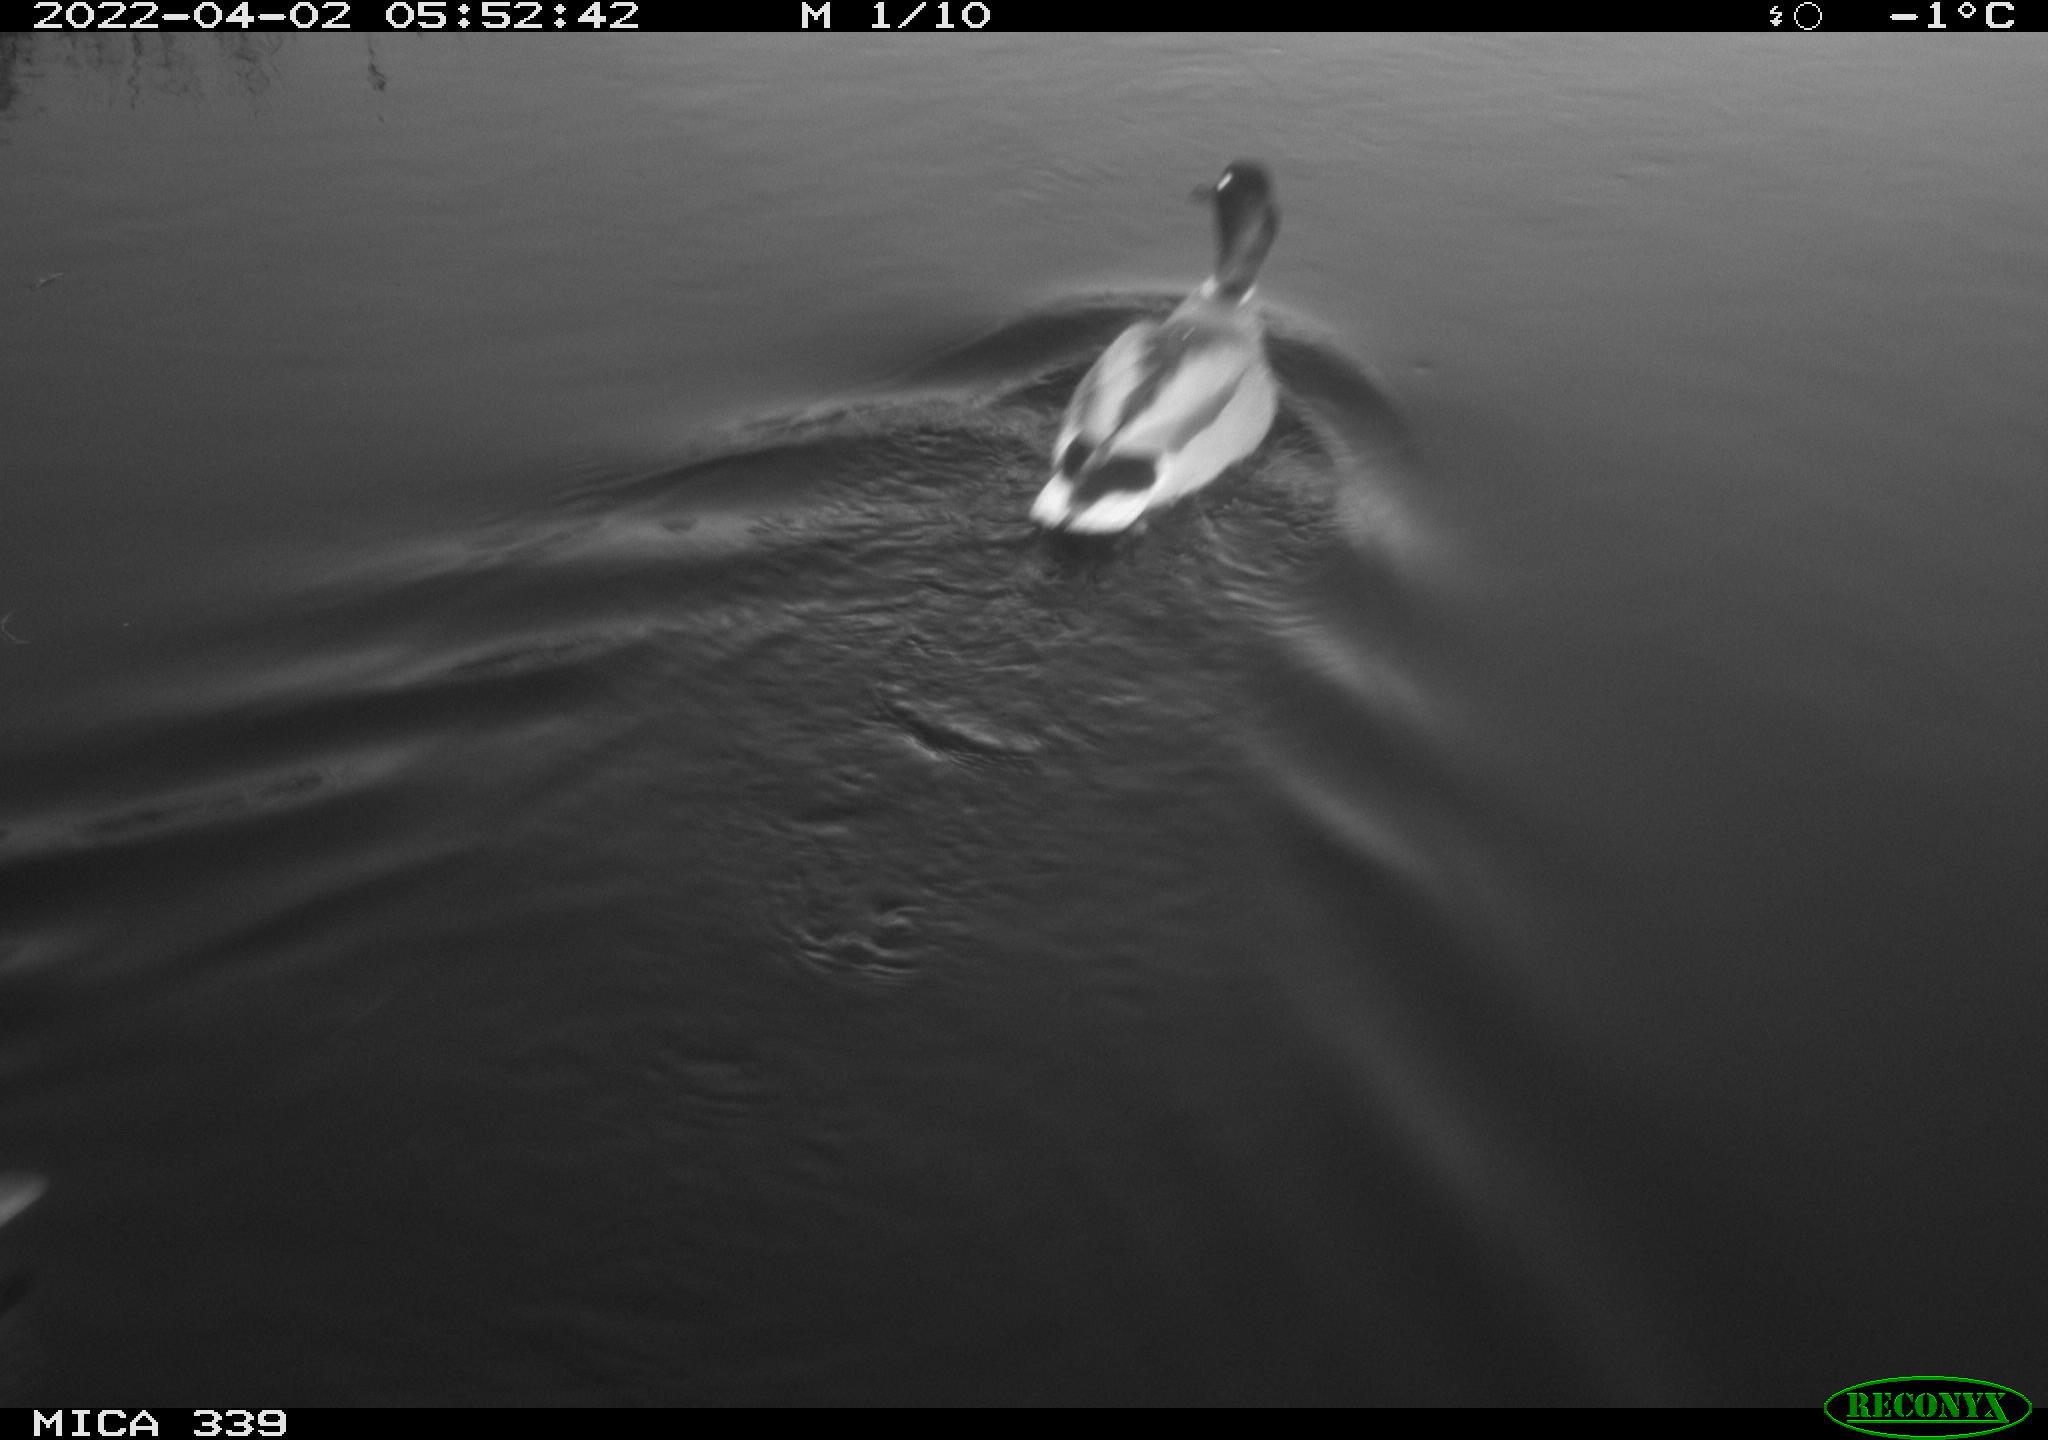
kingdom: Animalia
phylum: Chordata
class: Aves
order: Anseriformes
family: Anatidae
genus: Anas
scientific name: Anas platyrhynchos
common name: Mallard
